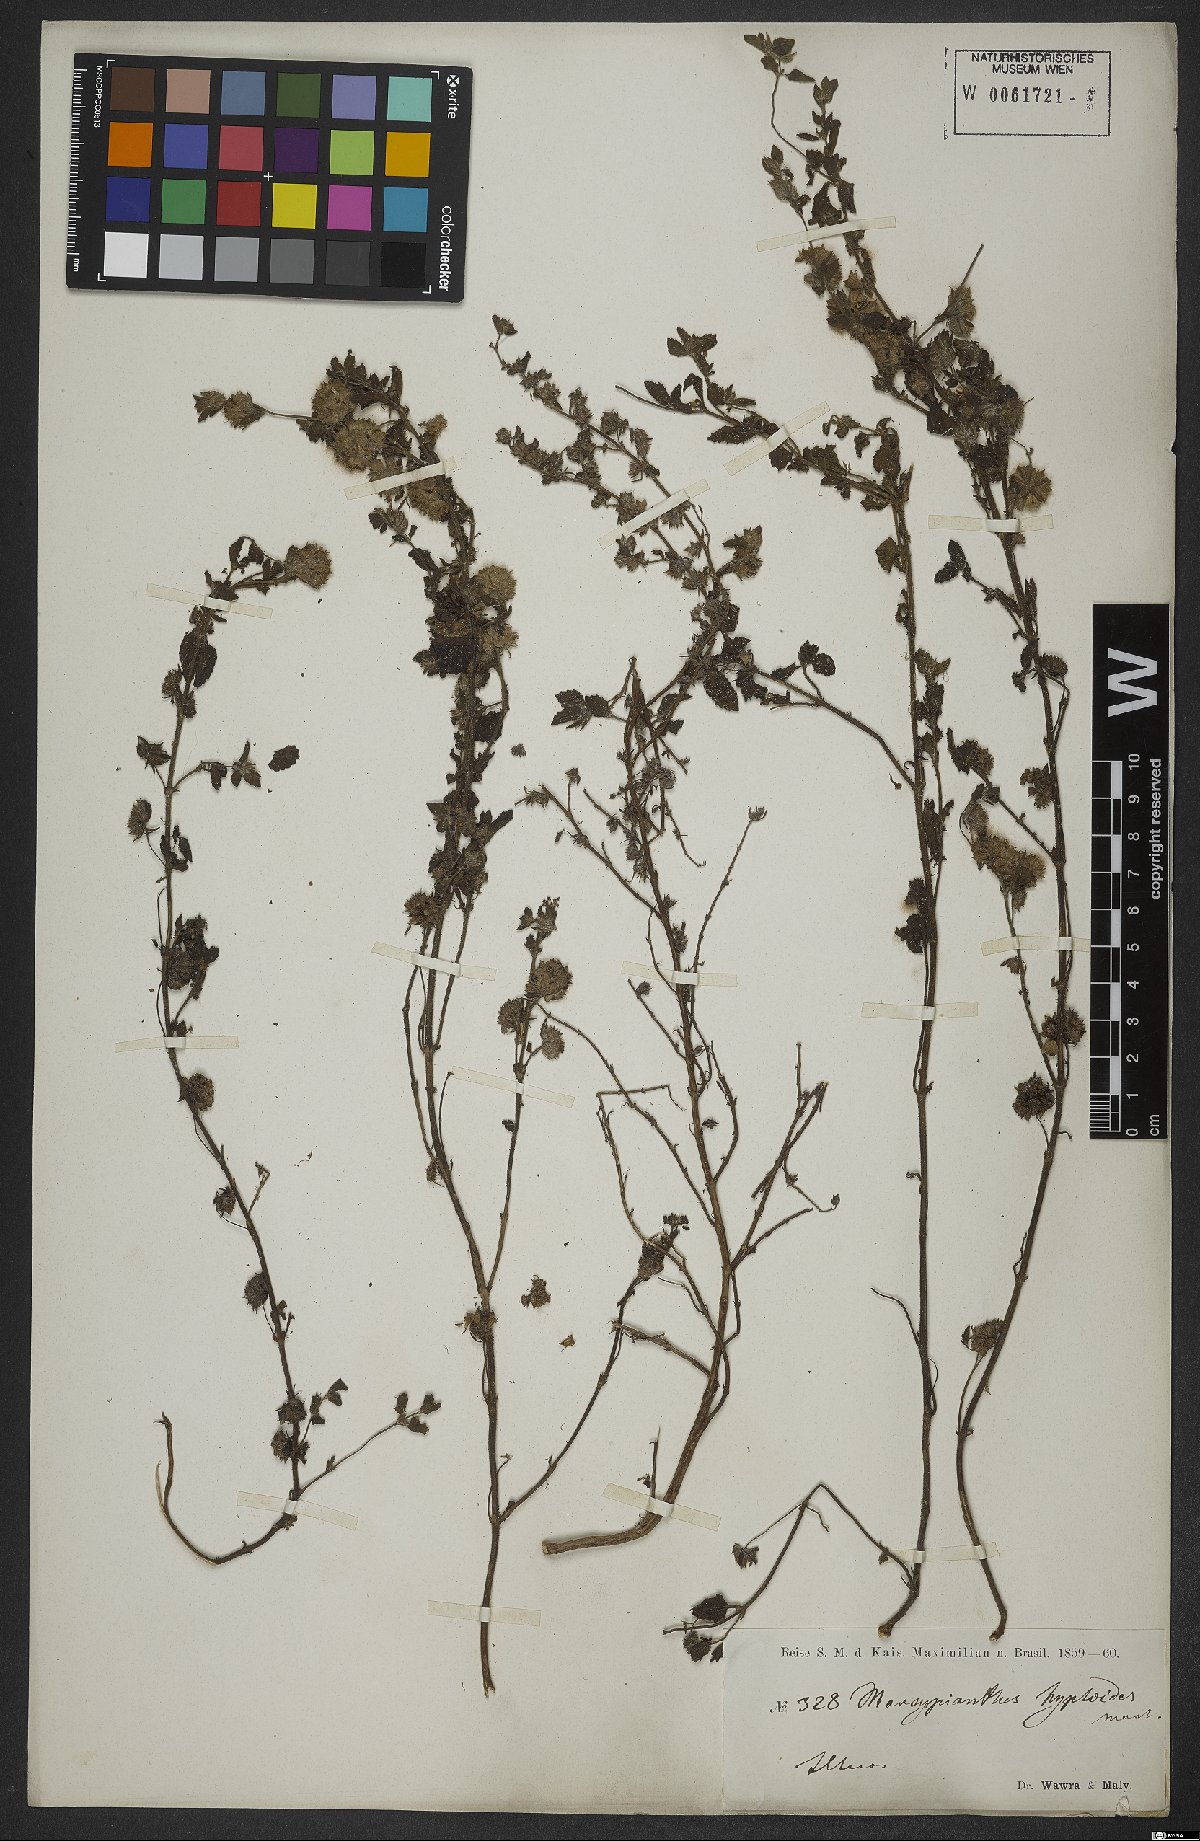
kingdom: Plantae
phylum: Tracheophyta
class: Magnoliopsida
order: Lamiales
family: Lamiaceae
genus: Marsypianthes
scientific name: Marsypianthes chamaedrys
